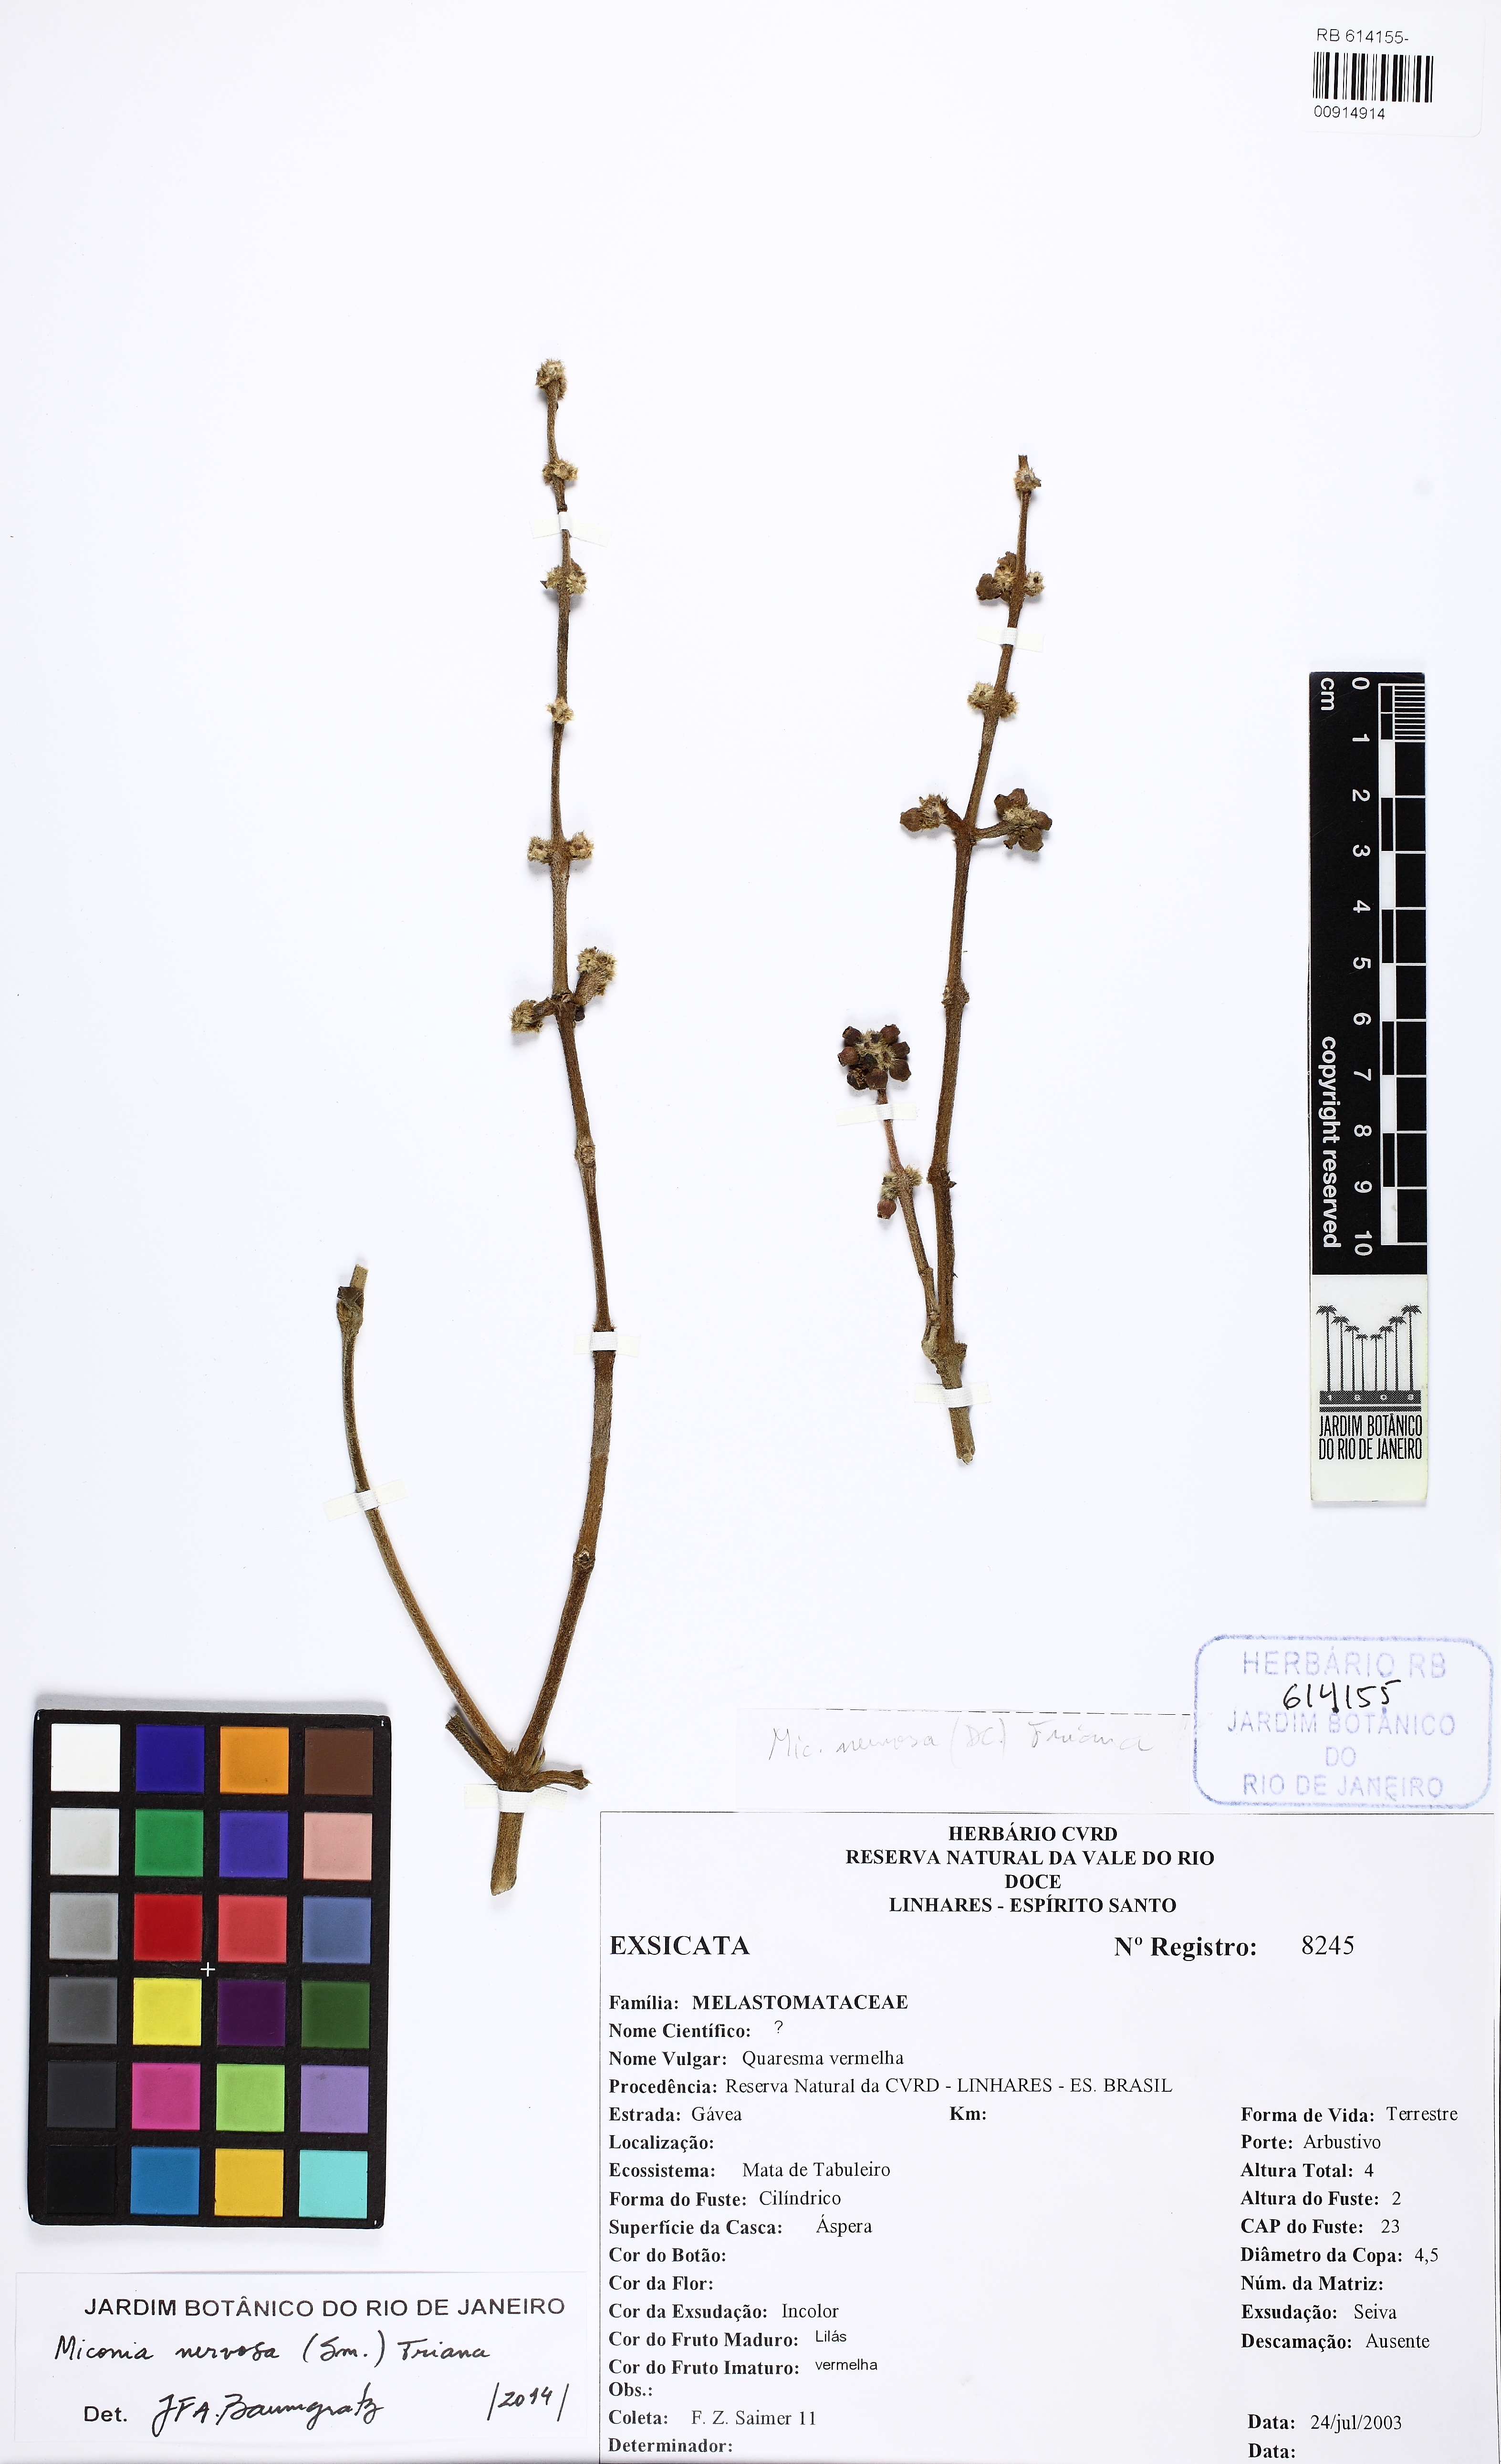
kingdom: Plantae
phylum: Tracheophyta
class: Magnoliopsida
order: Myrtales
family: Melastomataceae
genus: Miconia
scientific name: Miconia nervosa
